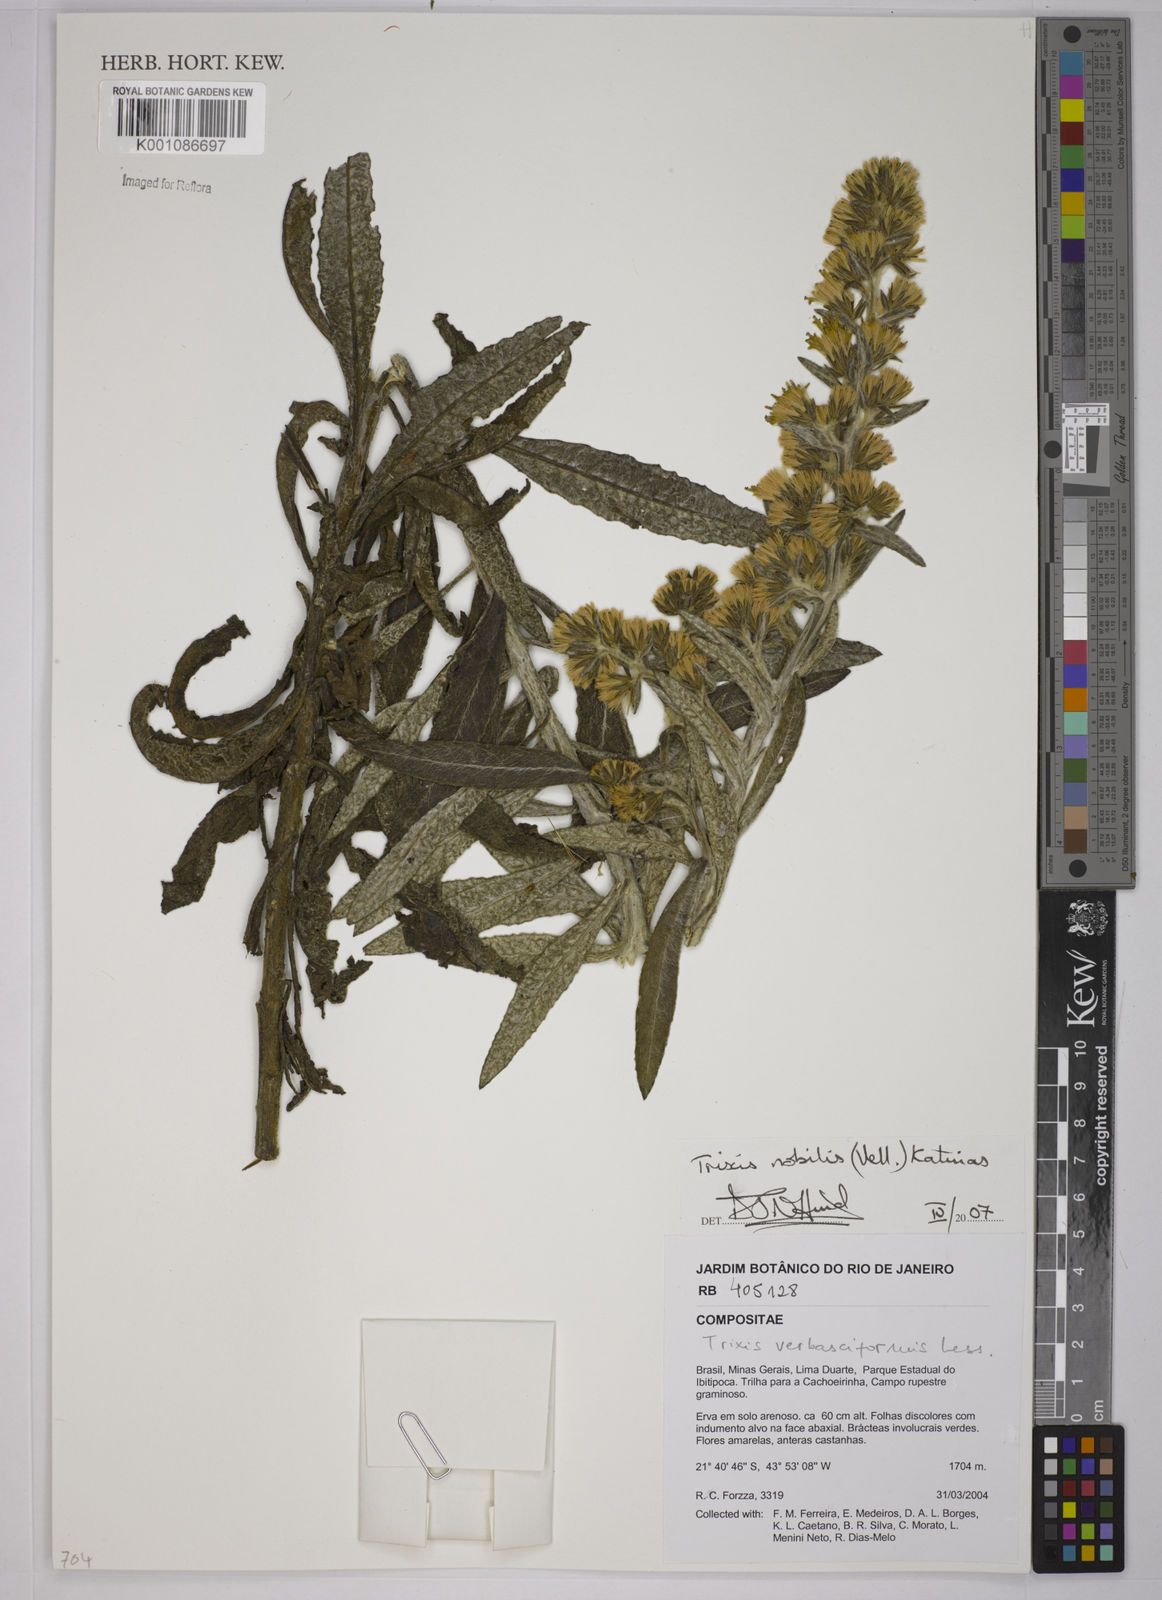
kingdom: Plantae
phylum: Tracheophyta
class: Magnoliopsida
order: Asterales
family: Asteraceae
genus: Trixis
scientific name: Trixis nobilis
